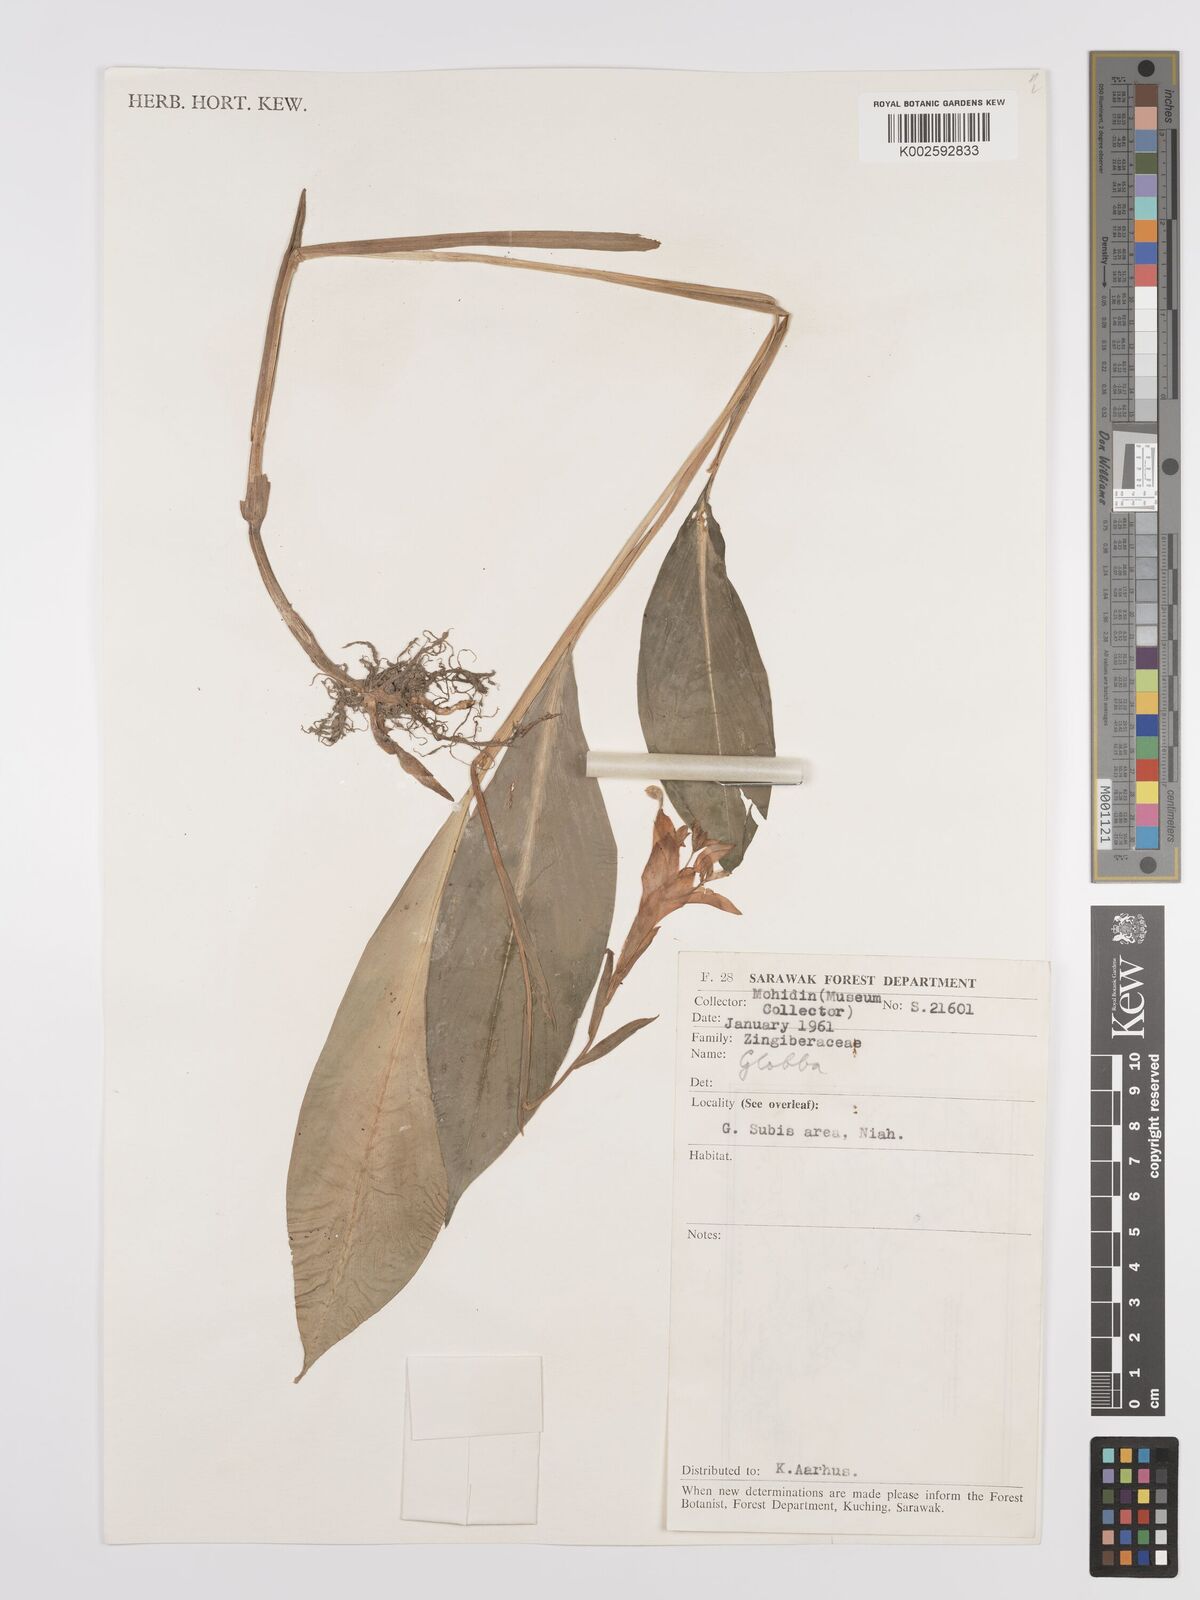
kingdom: Plantae
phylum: Tracheophyta
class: Liliopsida
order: Zingiberales
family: Zingiberaceae
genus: Globba
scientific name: Globba atrosanguinea
